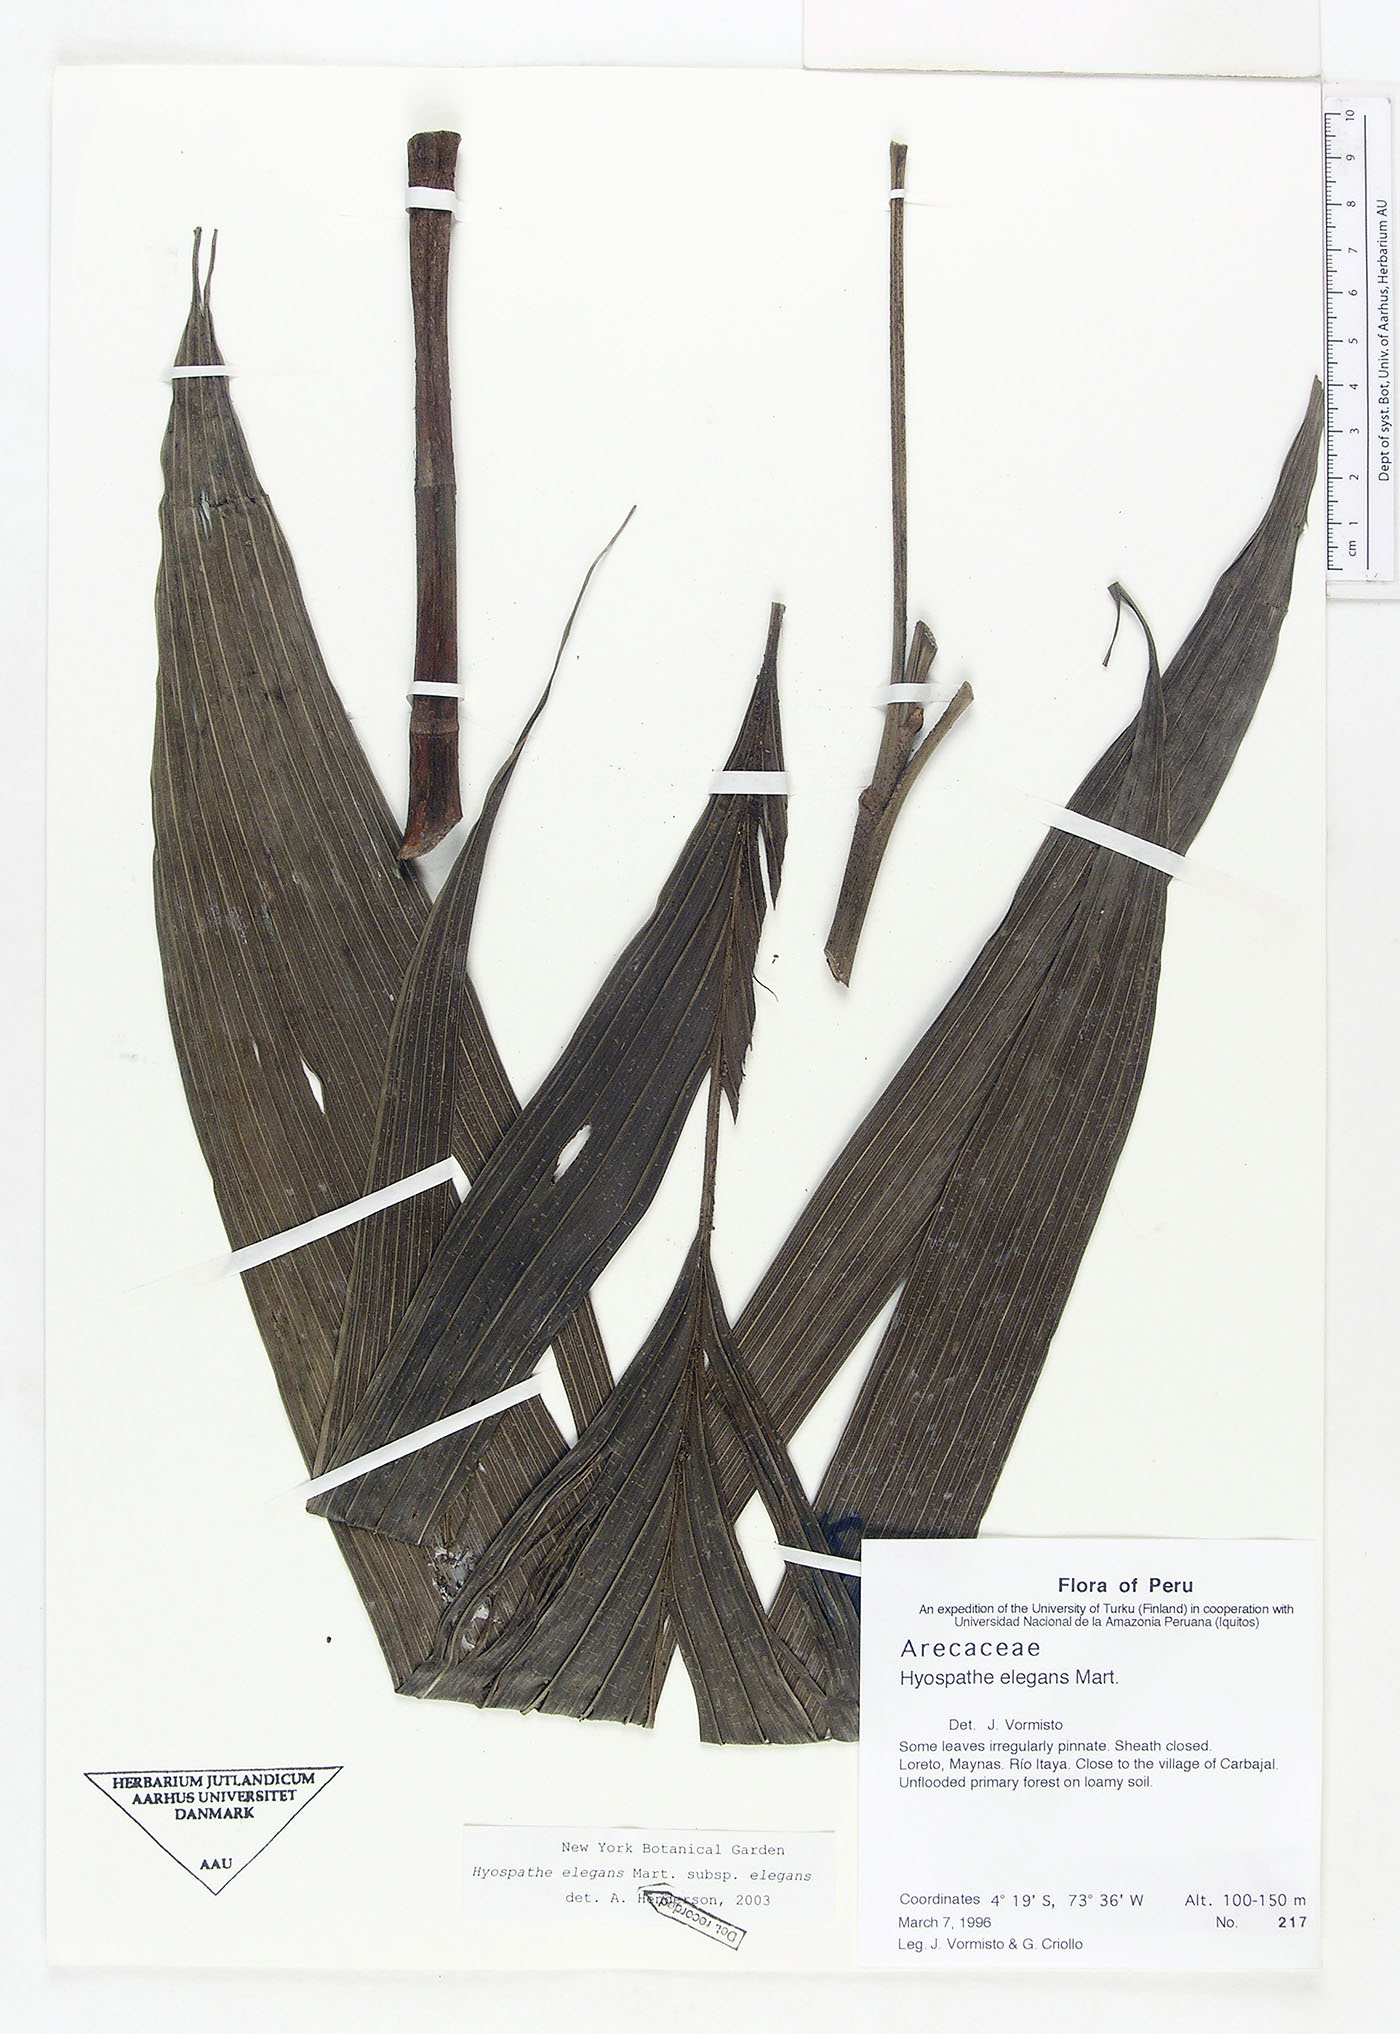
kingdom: Plantae
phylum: Tracheophyta
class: Liliopsida
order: Arecales
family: Arecaceae
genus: Hyospathe
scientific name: Hyospathe elegans
